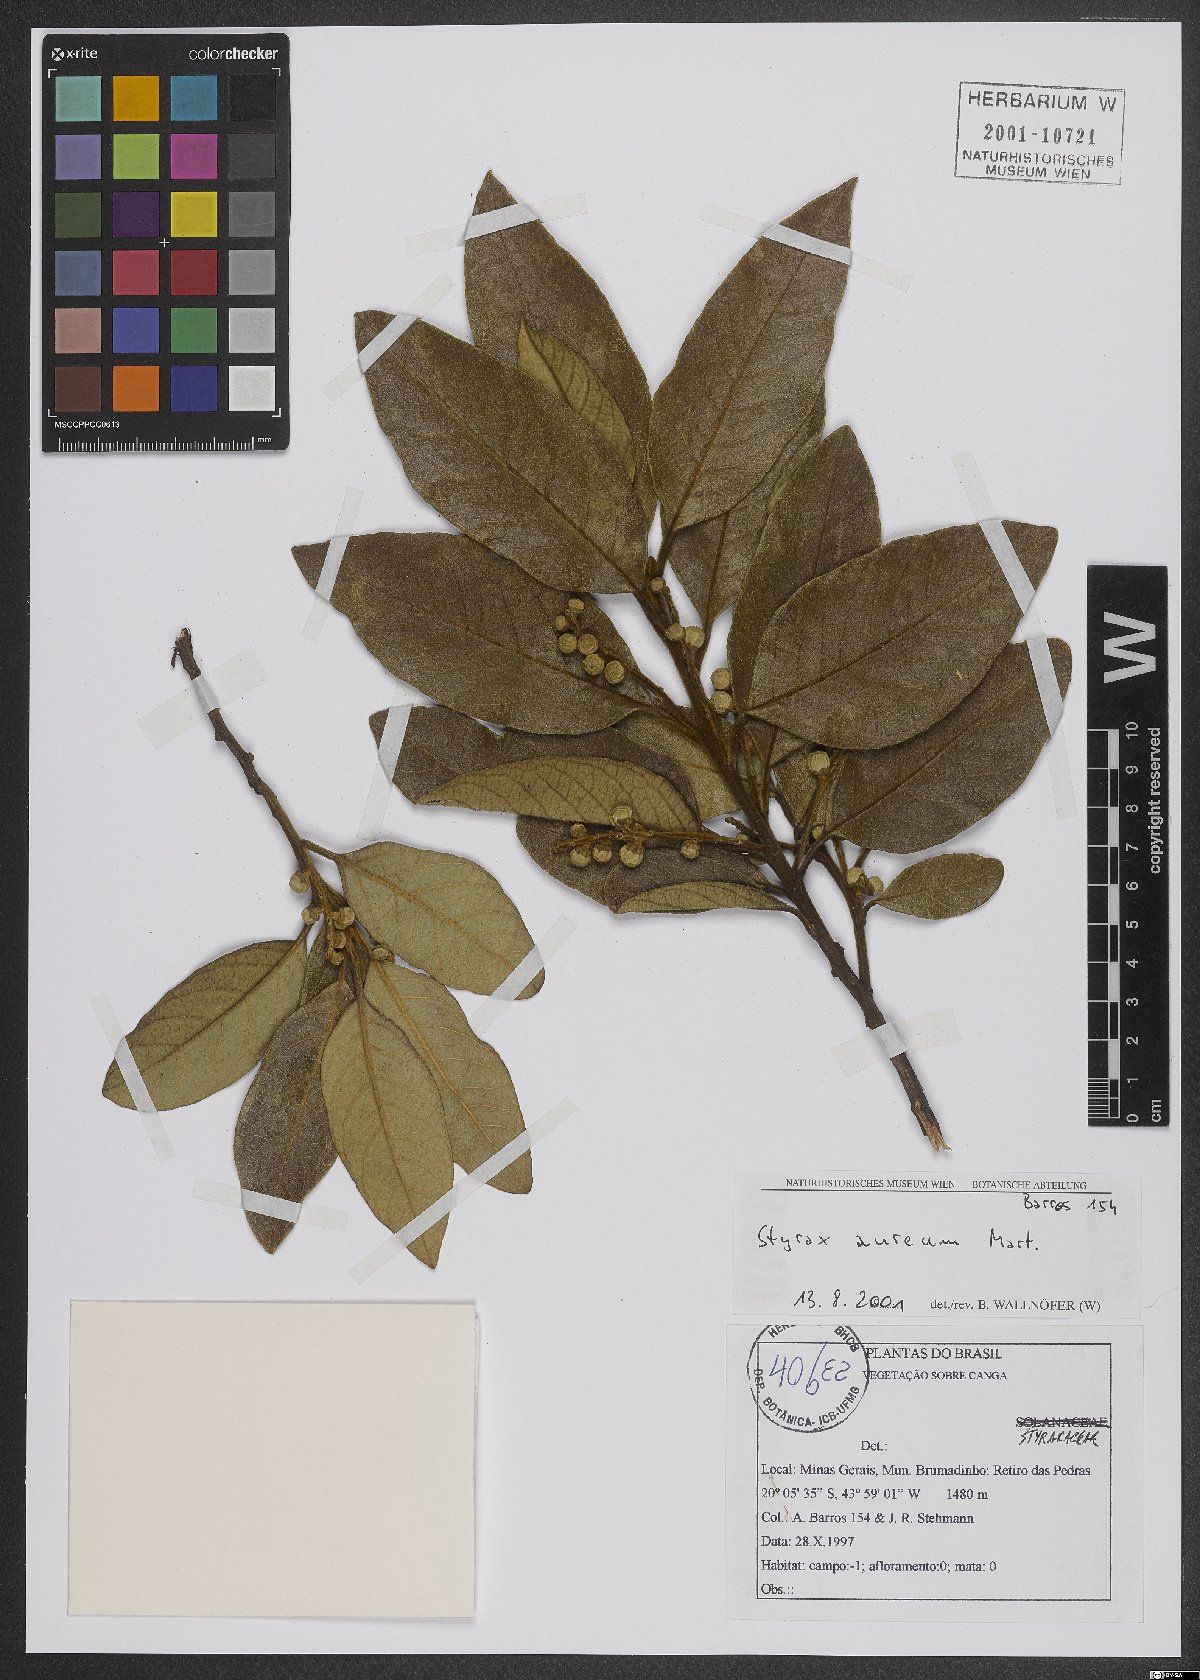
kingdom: Plantae
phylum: Tracheophyta
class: Magnoliopsida
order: Ericales
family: Styracaceae
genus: Styrax
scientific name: Styrax aureus
